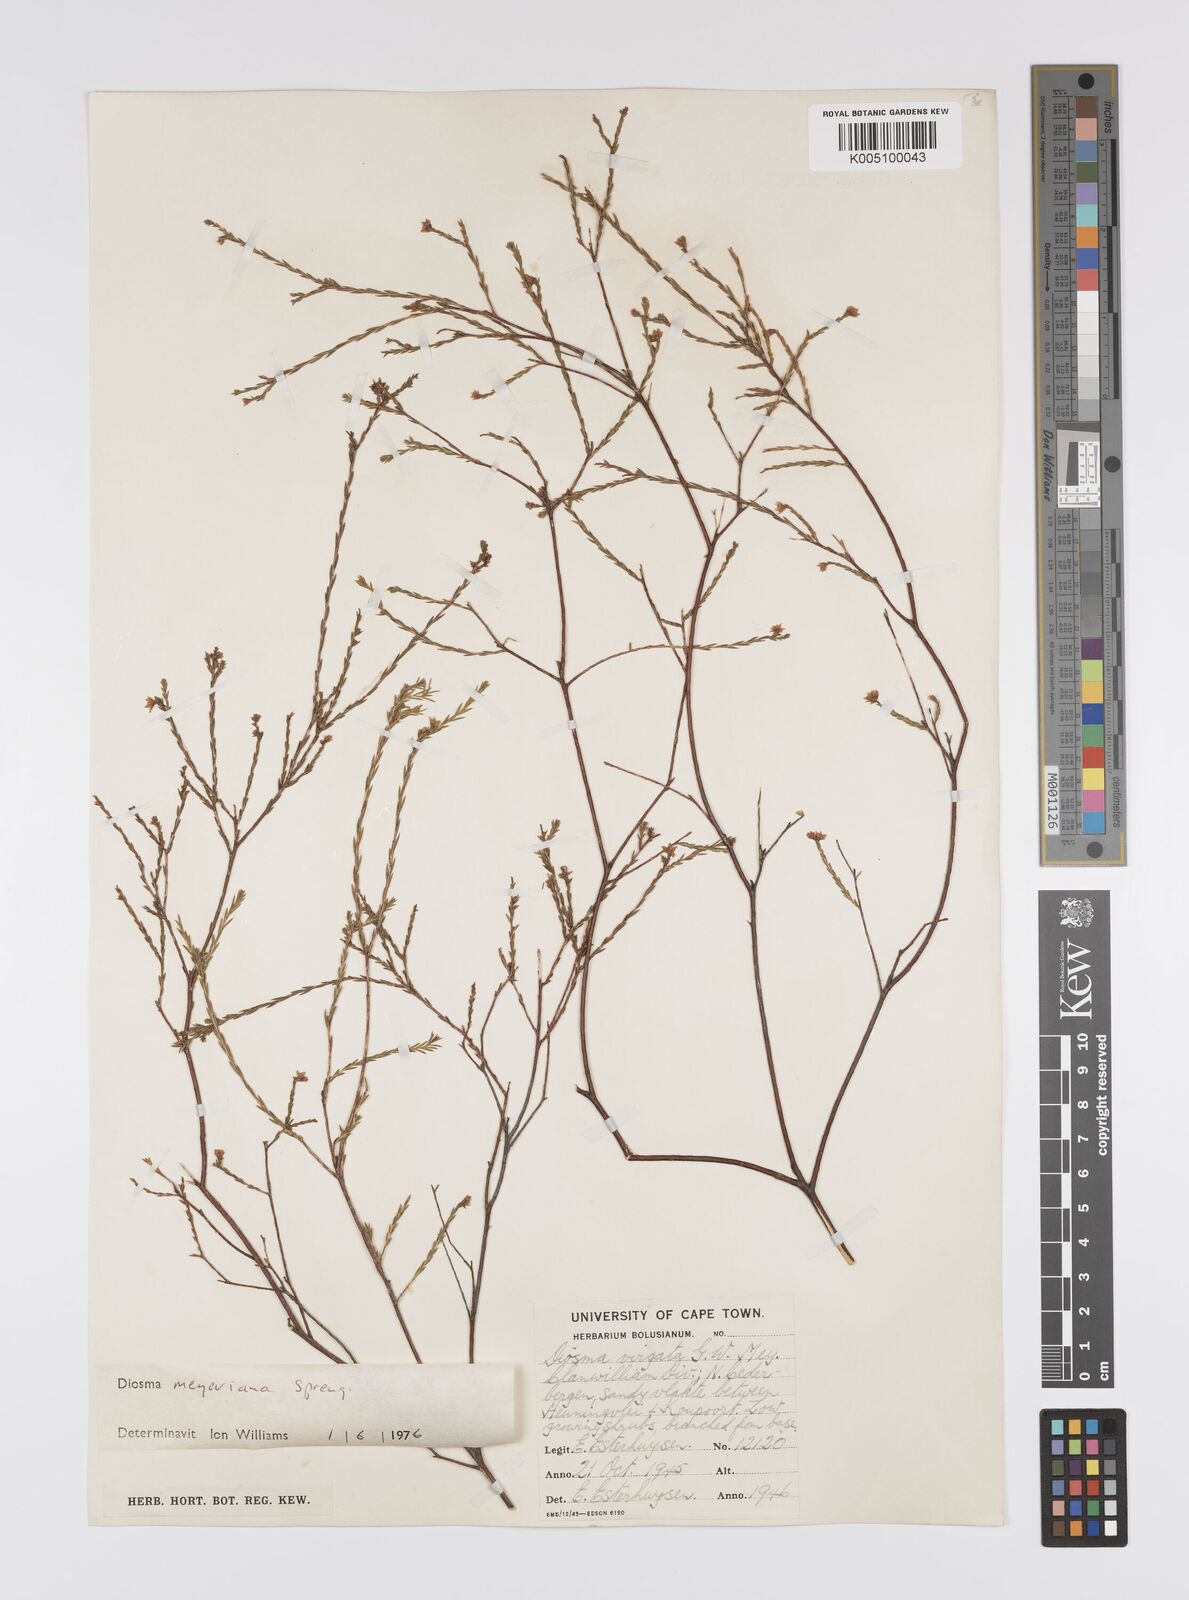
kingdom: Plantae
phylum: Tracheophyta
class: Magnoliopsida
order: Sapindales
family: Rutaceae
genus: Agathosma
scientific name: Agathosma virgata
